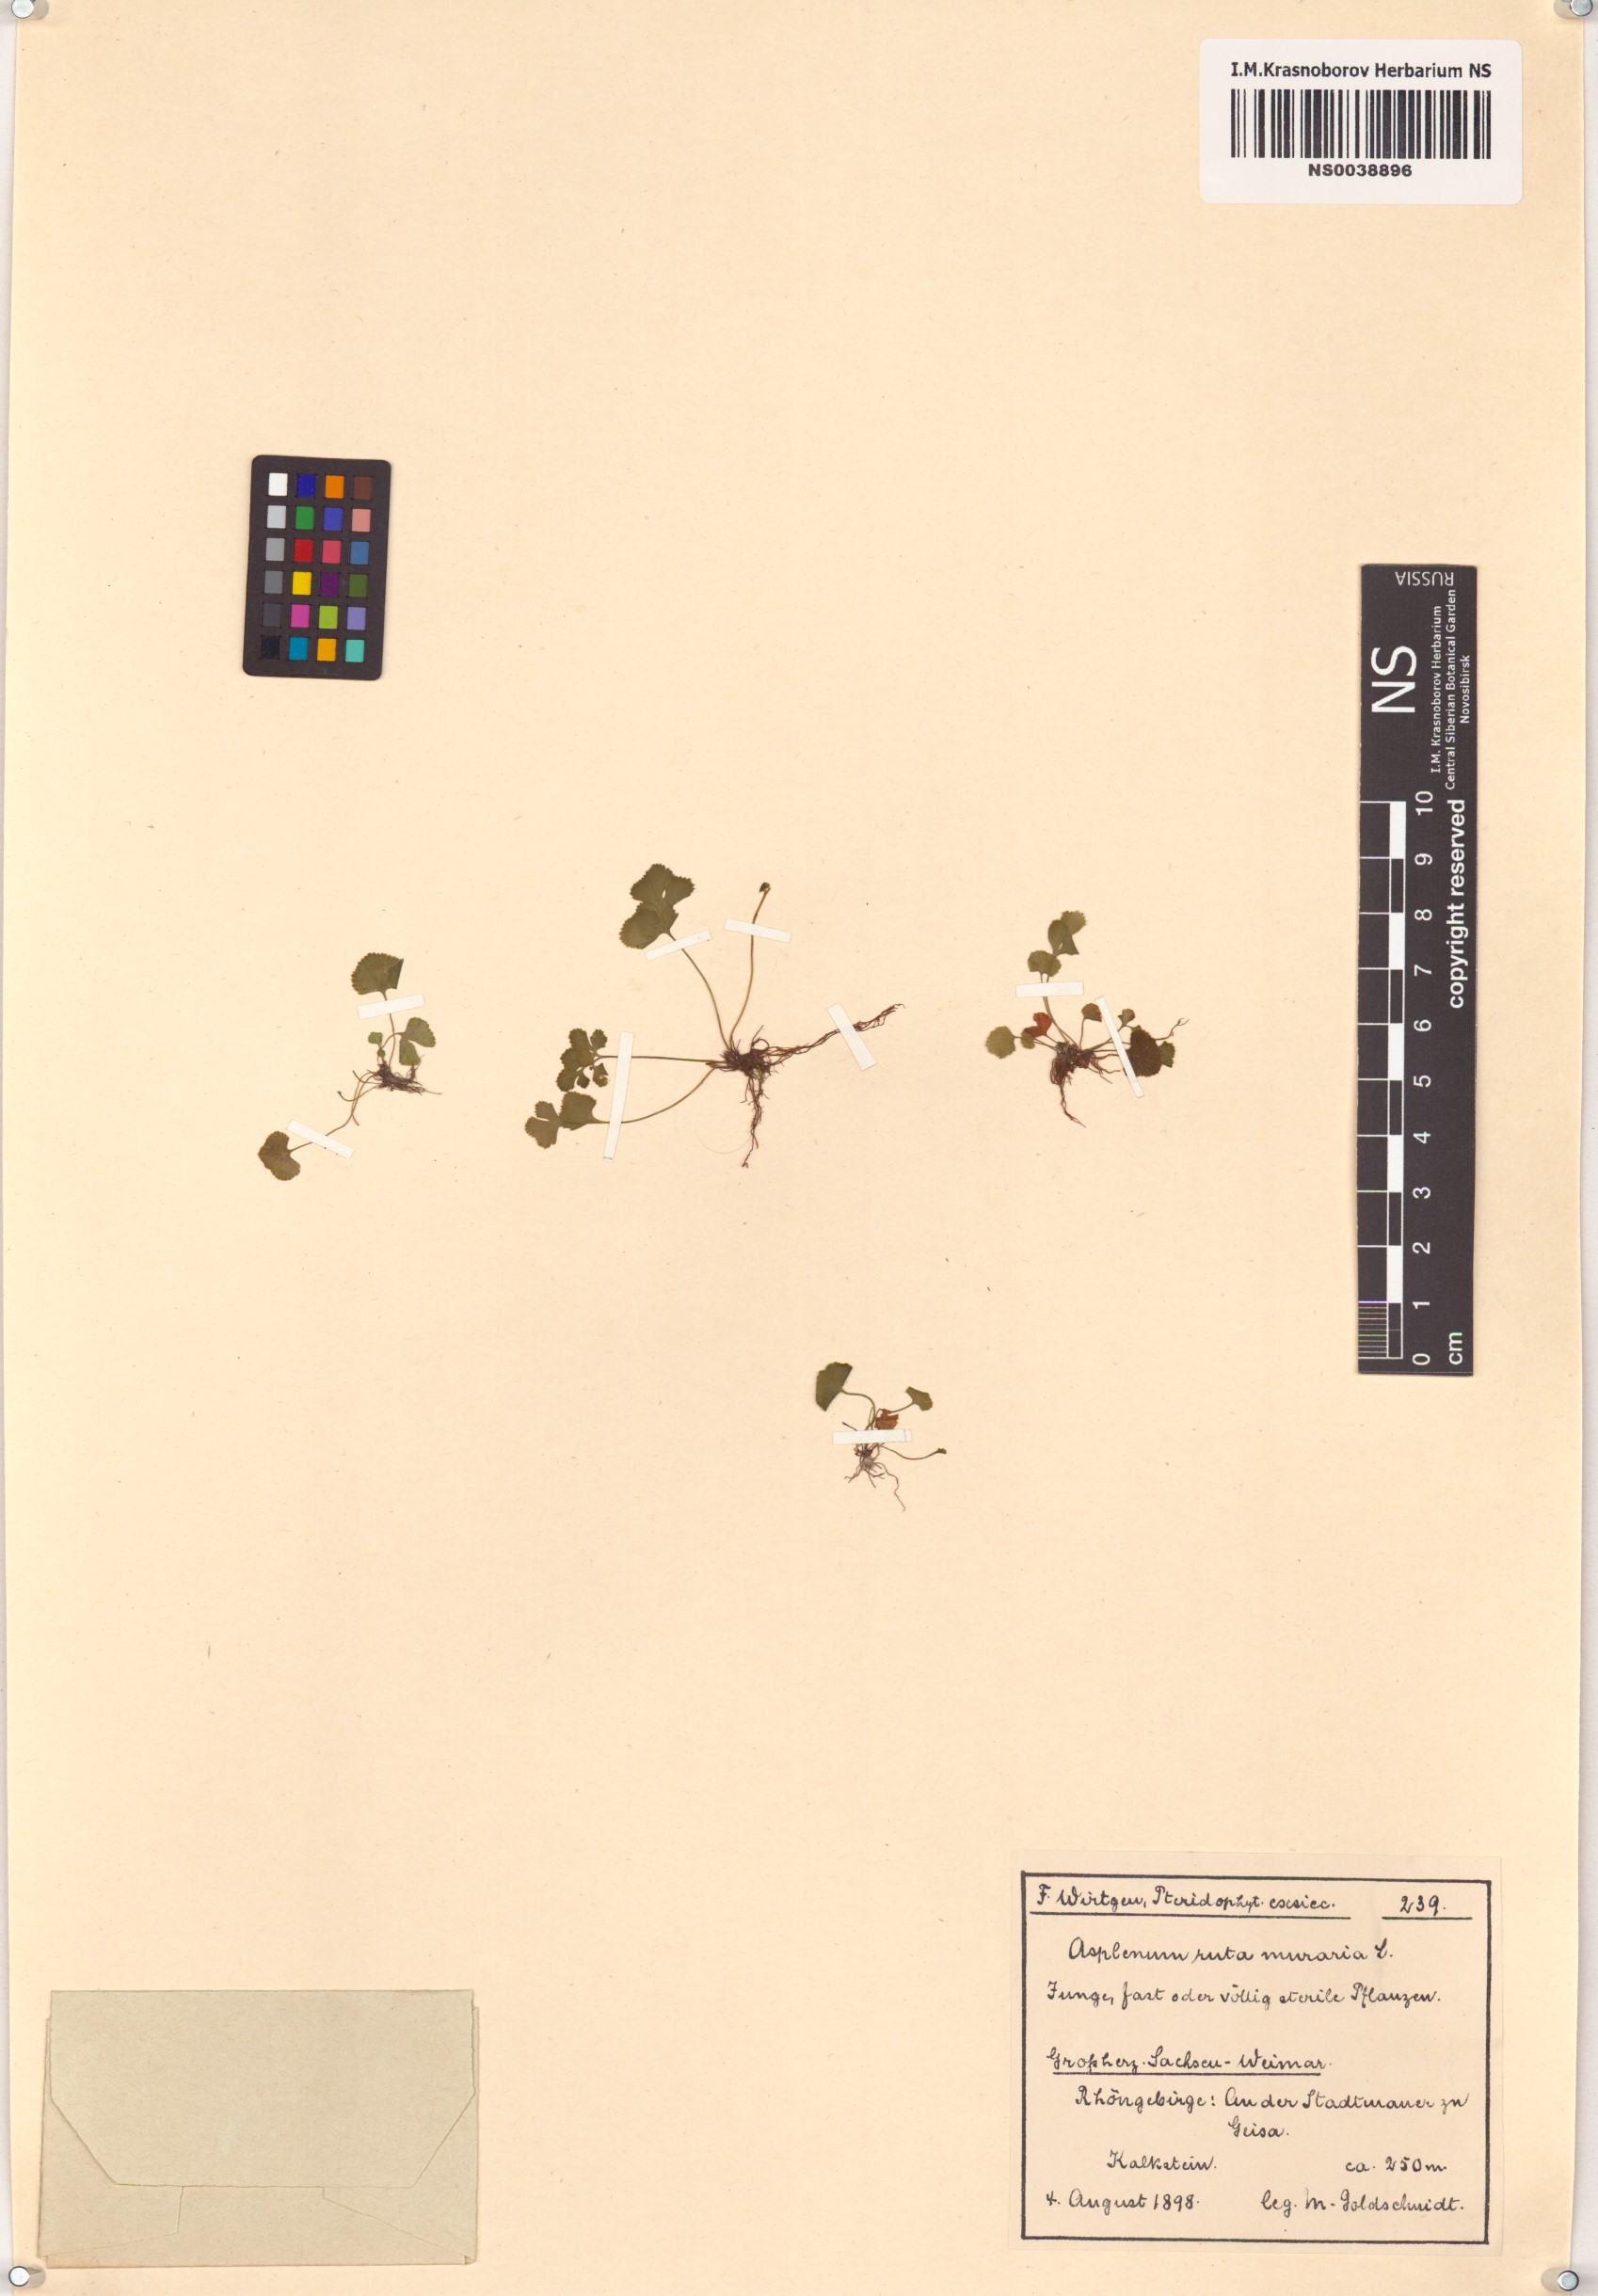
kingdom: Plantae
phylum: Tracheophyta
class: Polypodiopsida
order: Polypodiales
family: Aspleniaceae
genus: Asplenium
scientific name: Asplenium ruta-muraria
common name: Wall-rue
